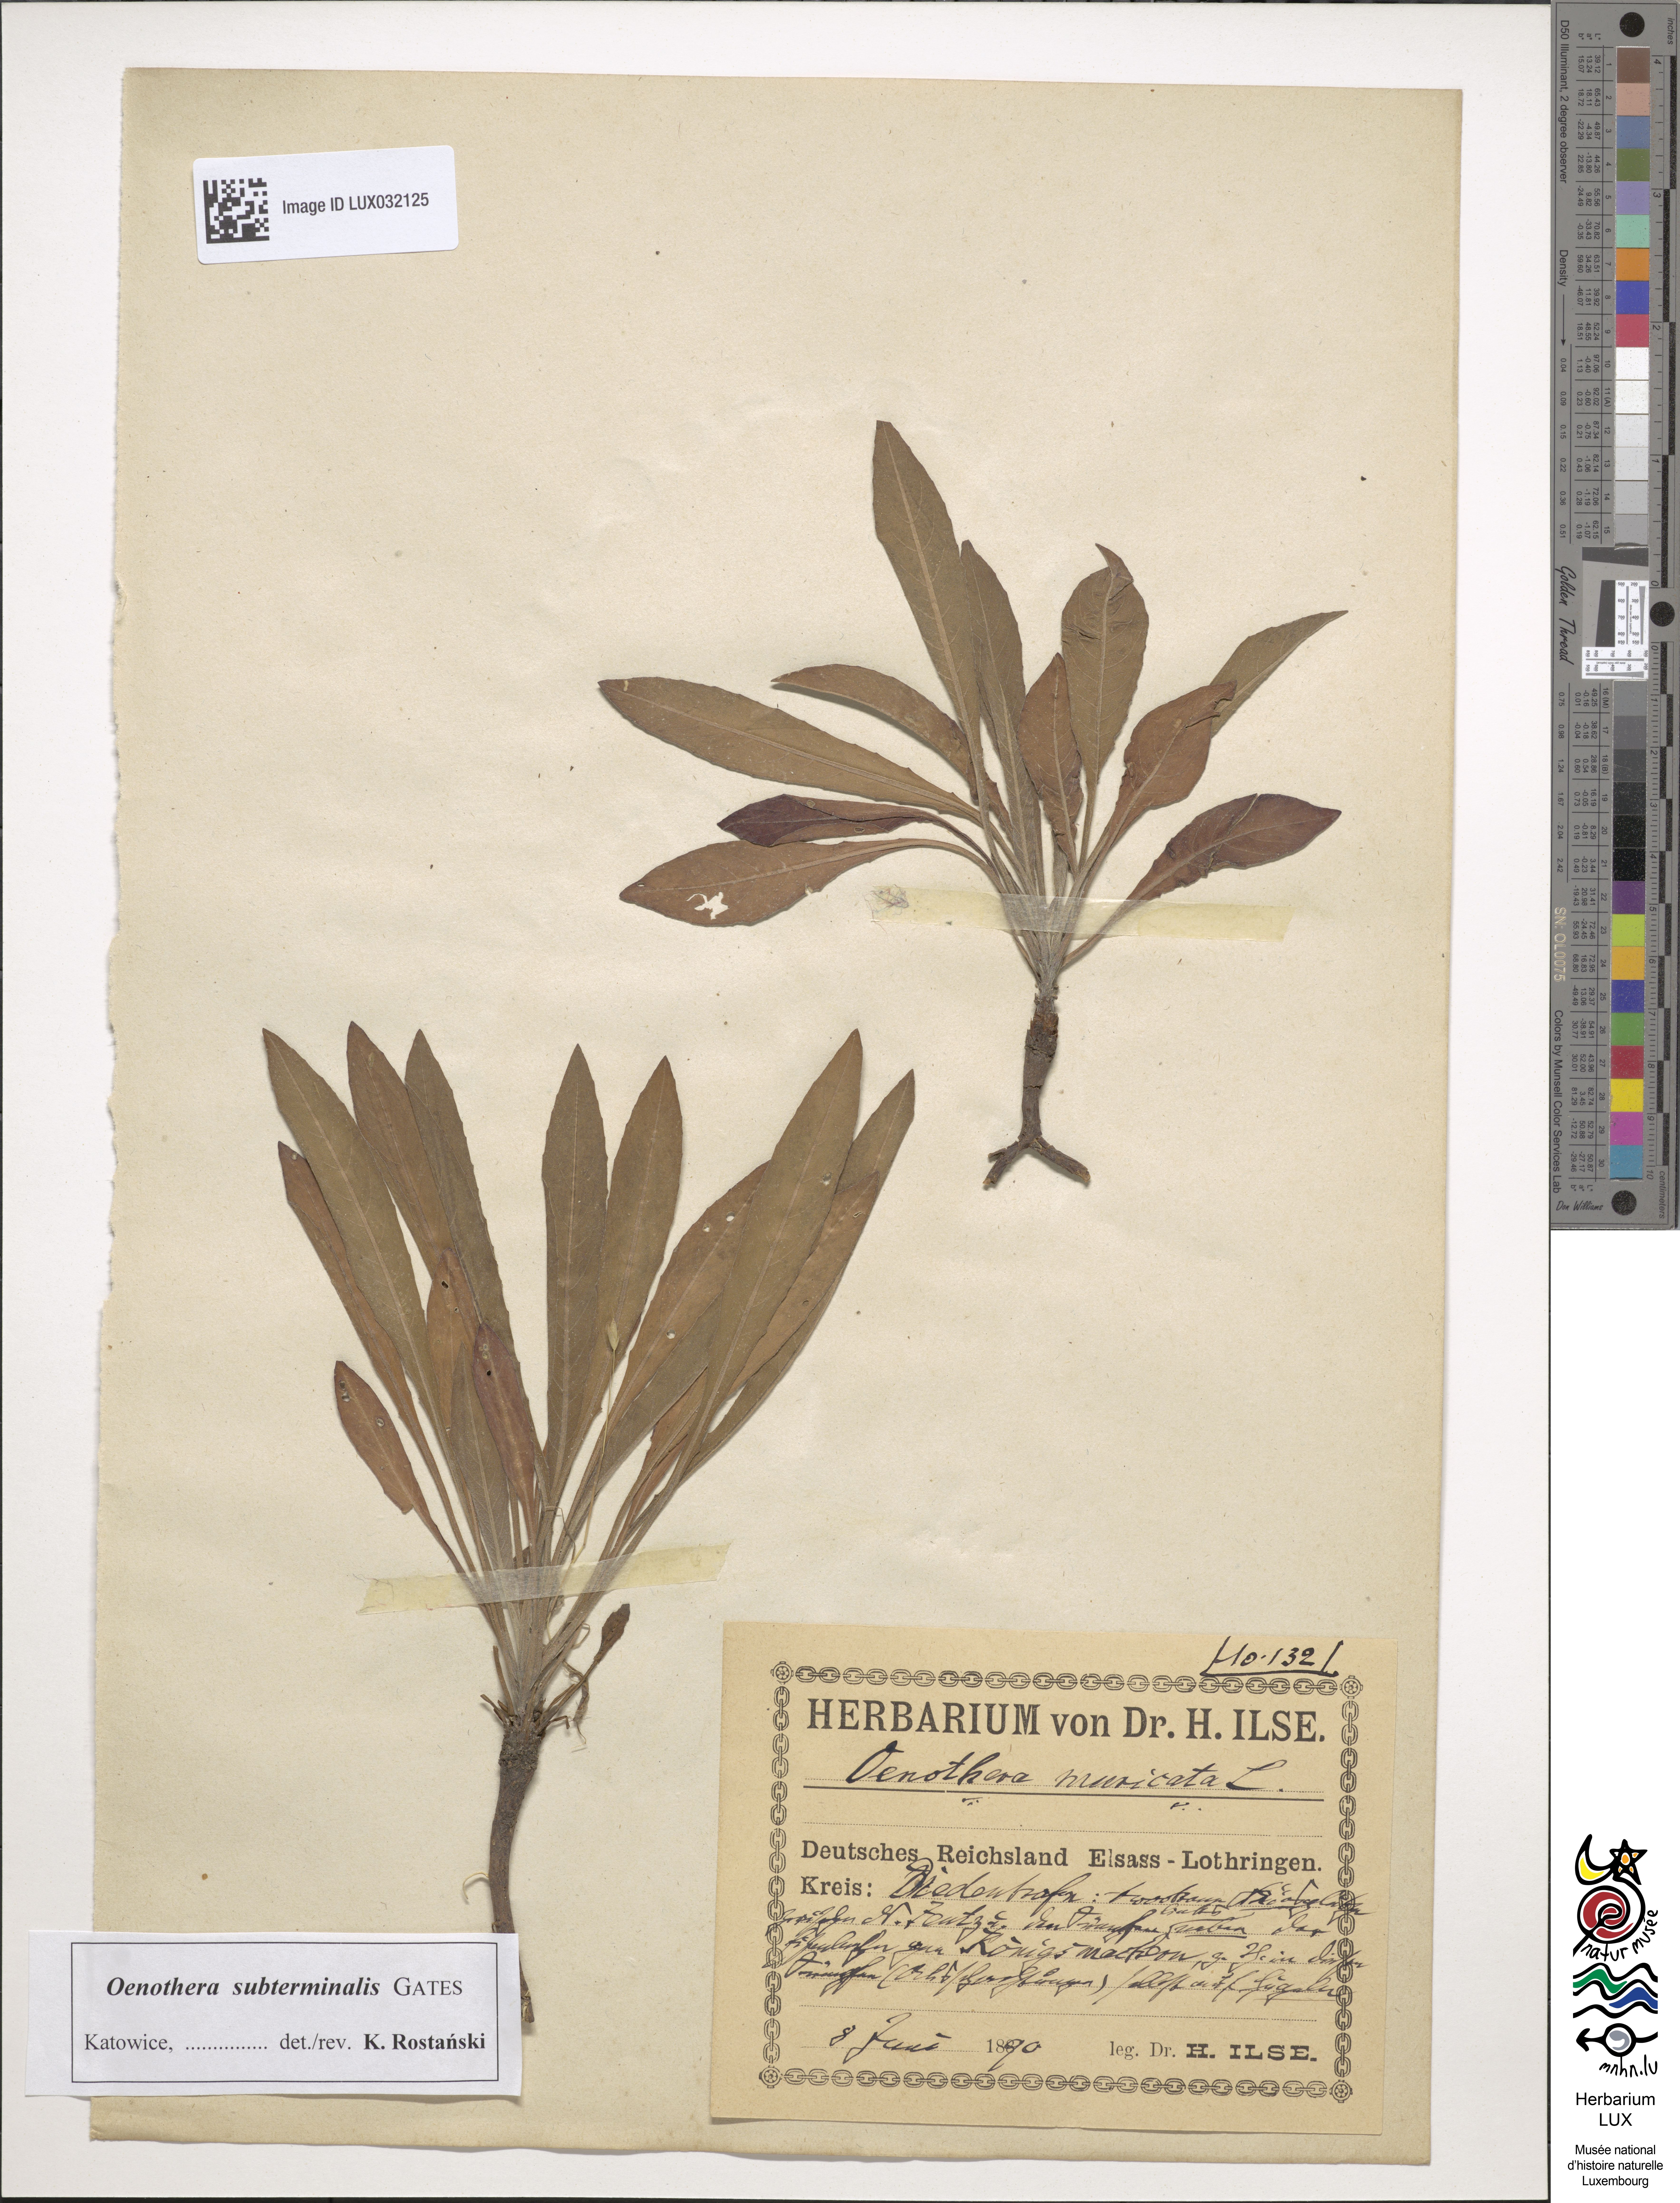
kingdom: Plantae
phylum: Tracheophyta
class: Magnoliopsida
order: Myrtales
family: Onagraceae
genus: Oenothera
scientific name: Oenothera biennis
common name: Common evening-primrose
